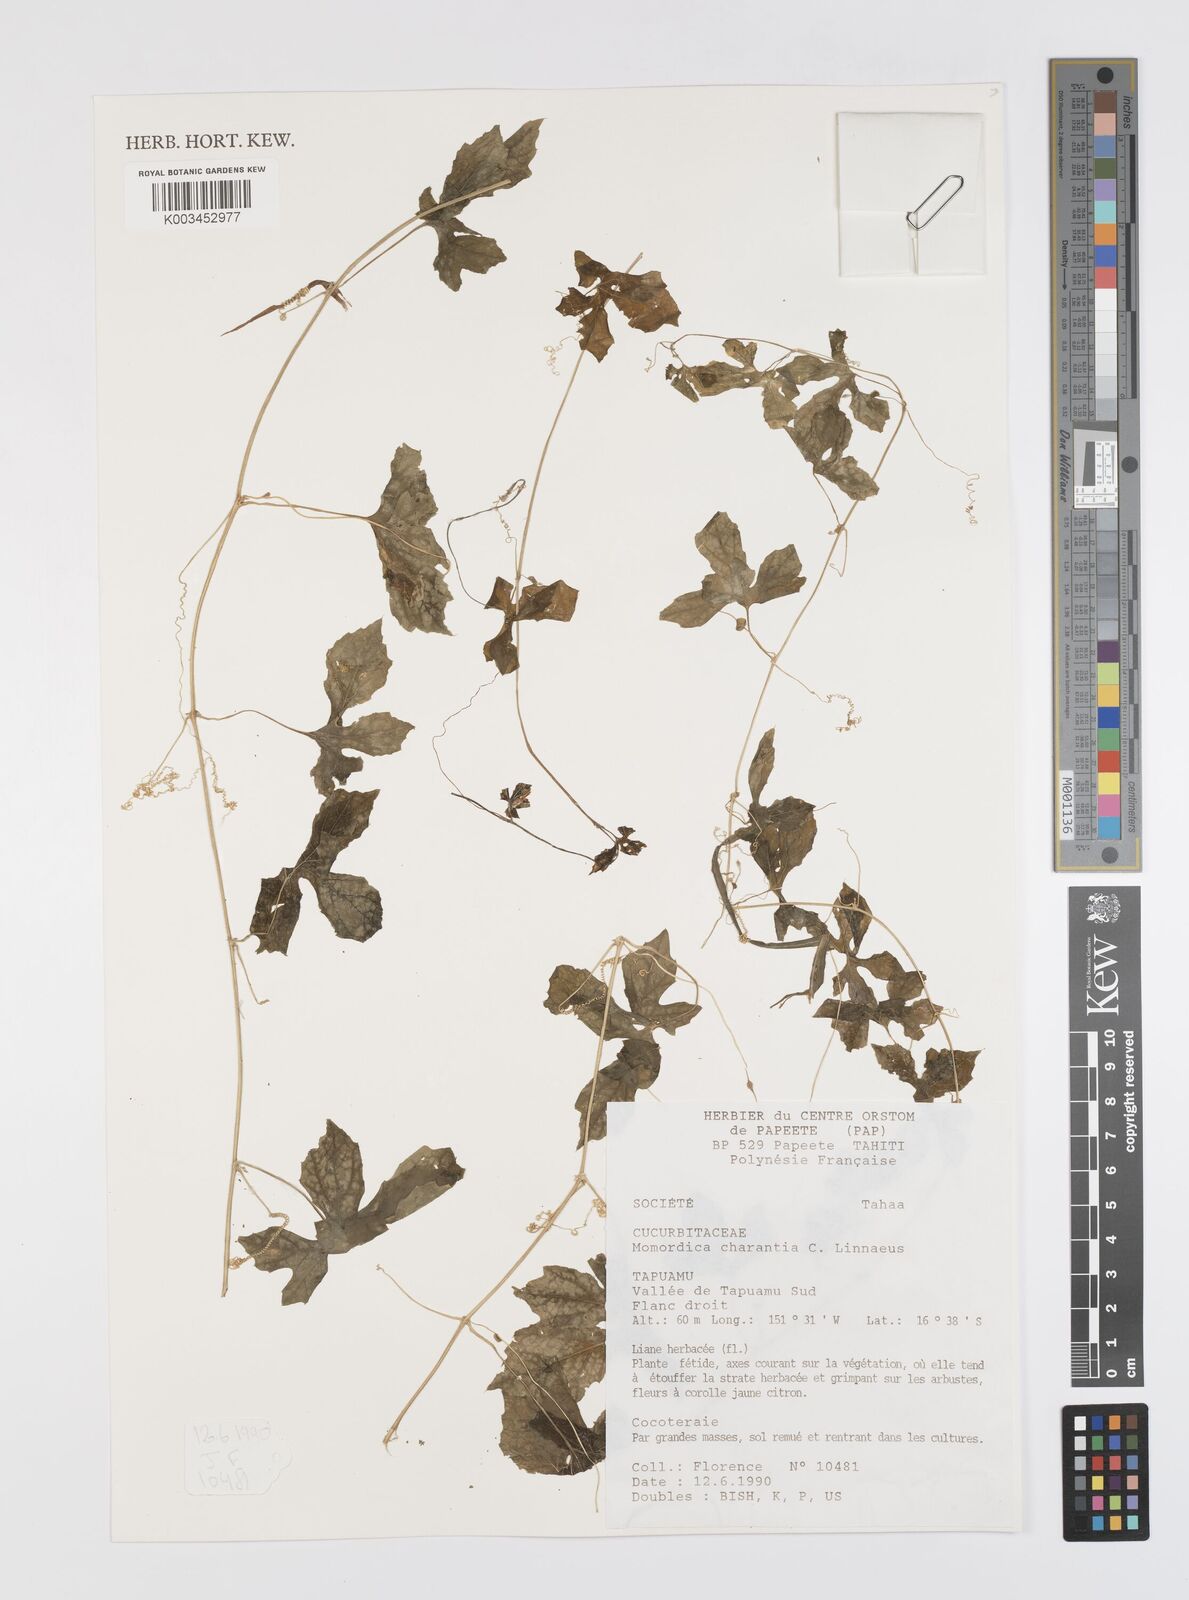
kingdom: Plantae
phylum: Tracheophyta
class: Magnoliopsida
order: Cucurbitales
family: Cucurbitaceae
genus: Momordica
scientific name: Momordica charantia
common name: Balsampear
